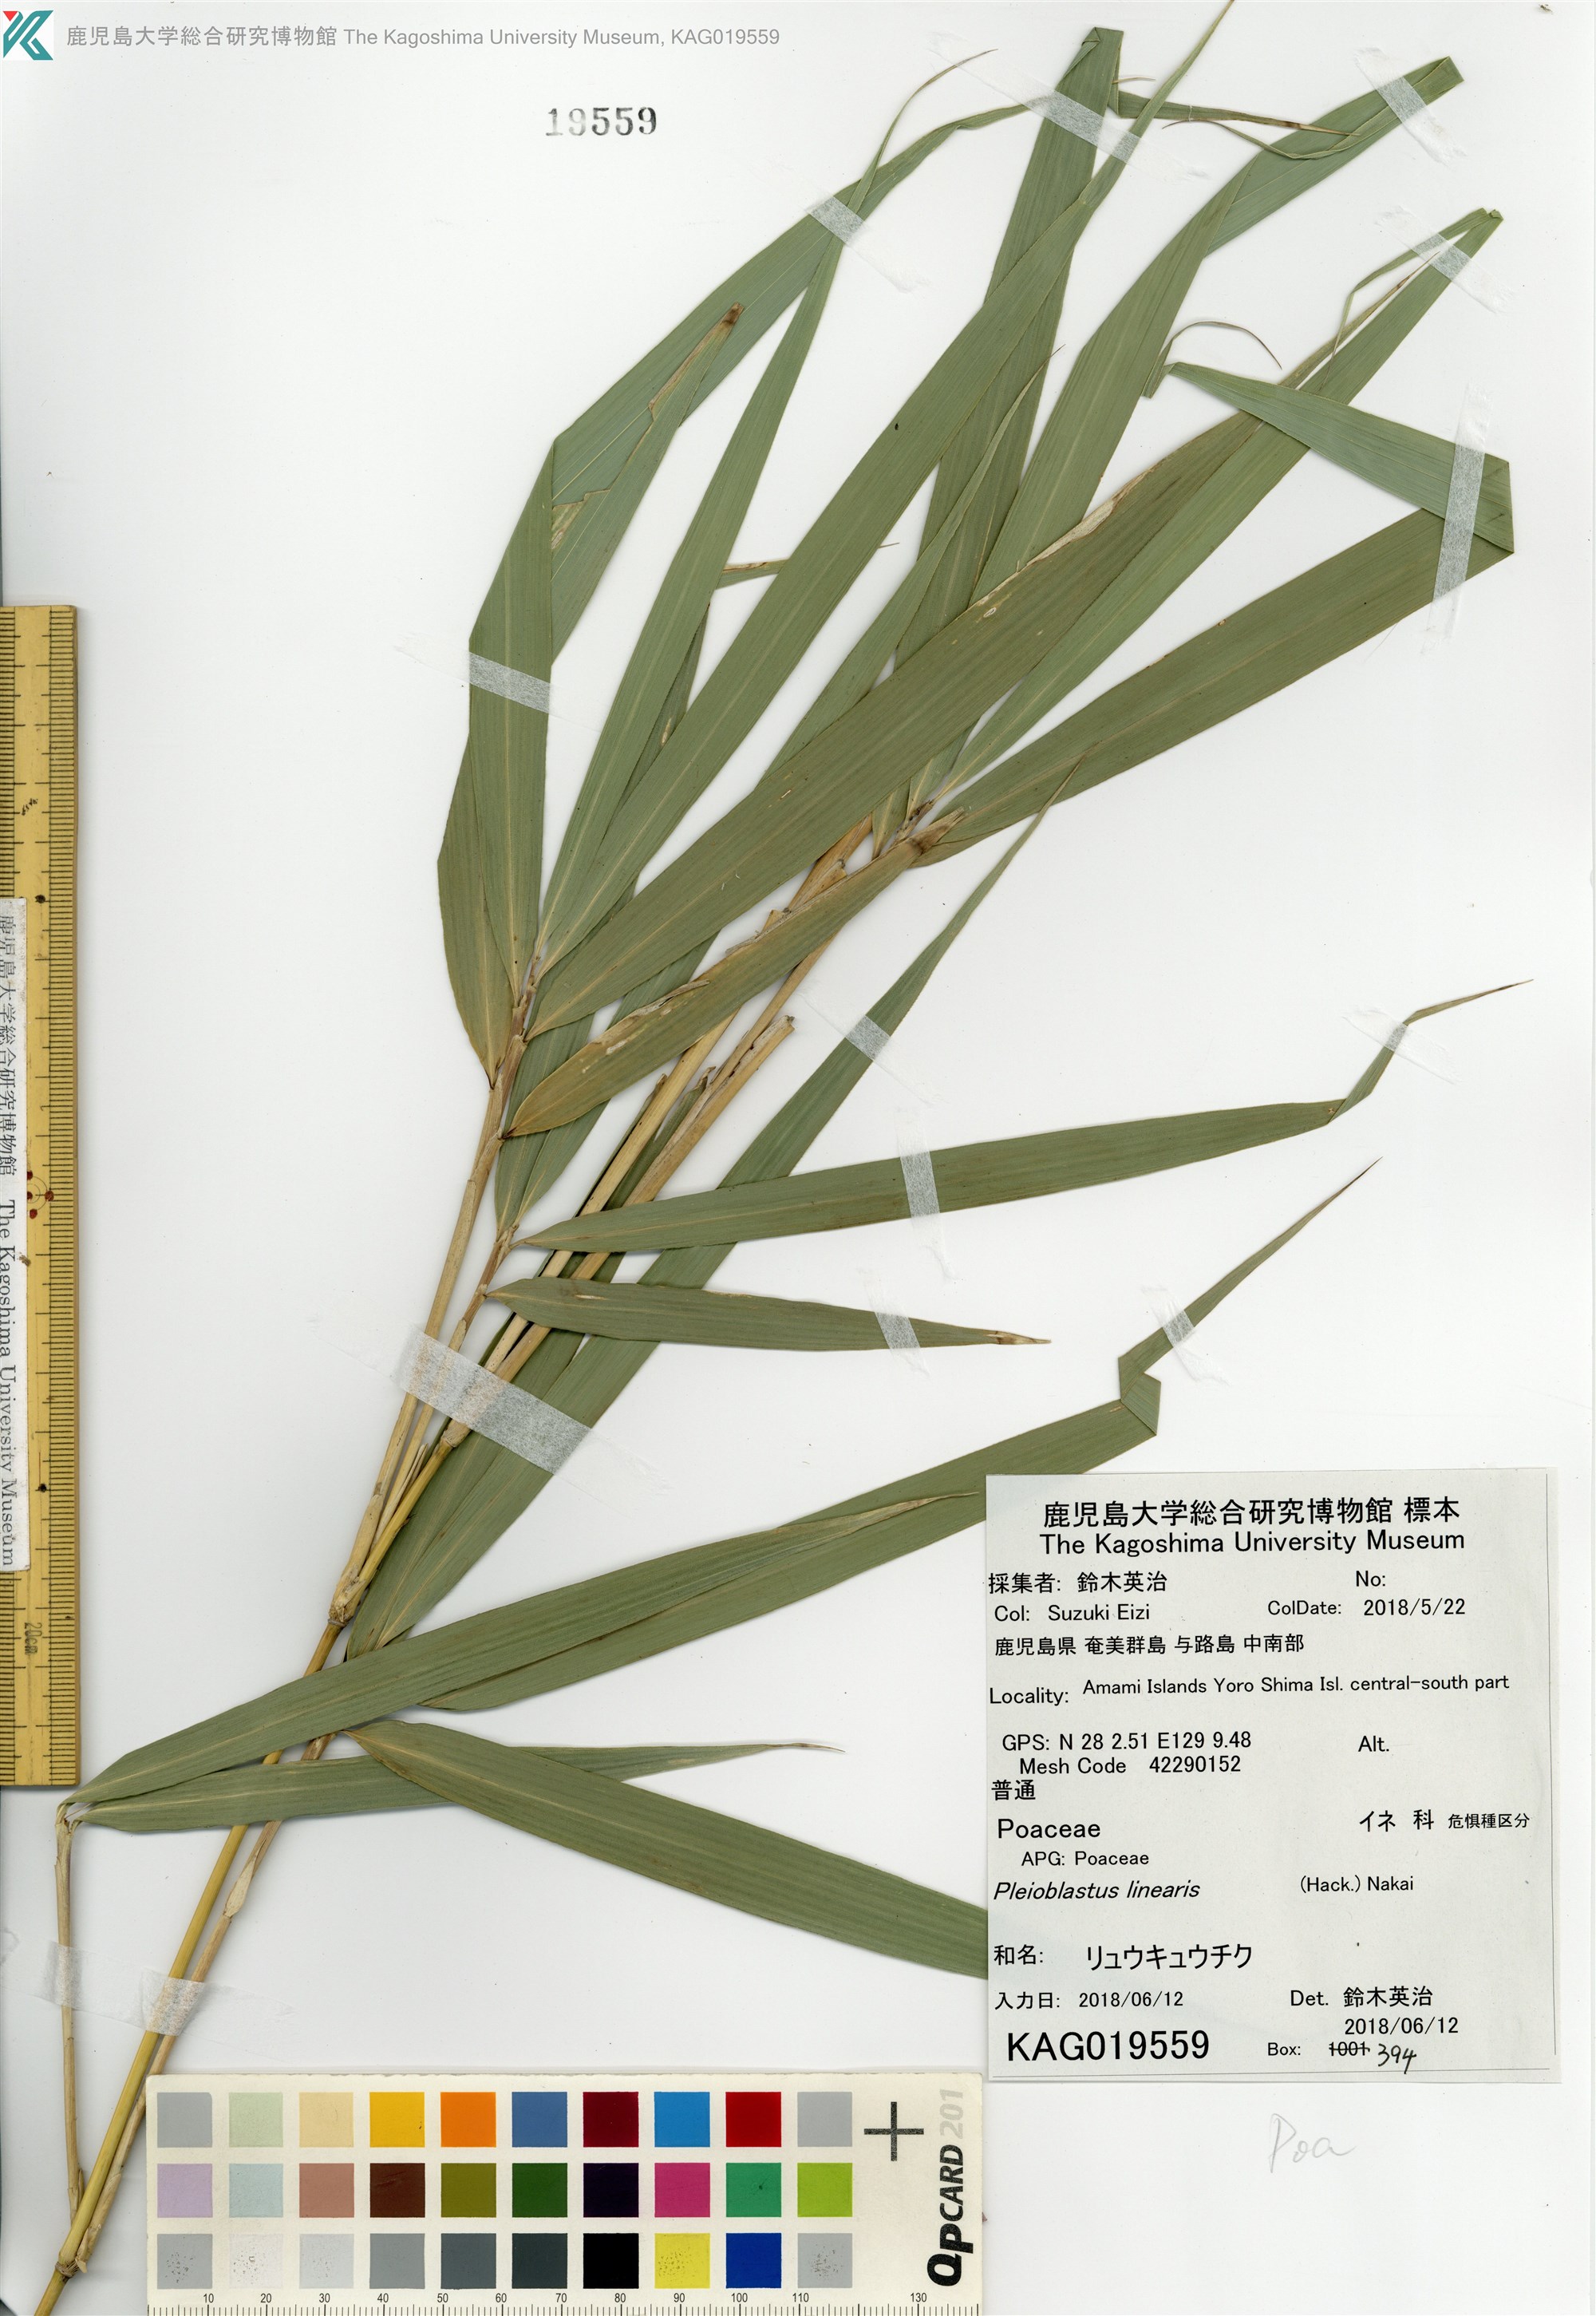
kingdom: Plantae
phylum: Tracheophyta
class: Liliopsida
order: Poales
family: Poaceae
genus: Pleioblastus
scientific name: Pleioblastus linearis
